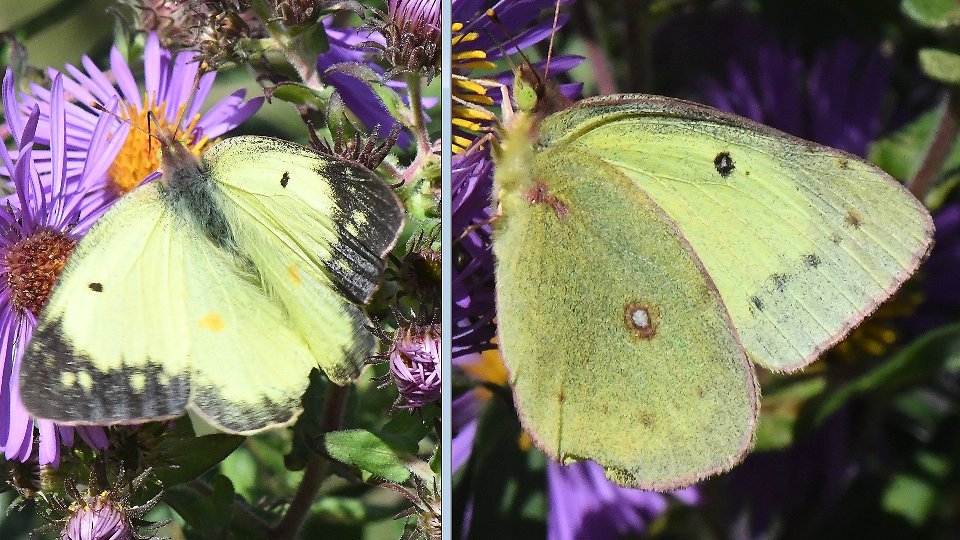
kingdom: Animalia
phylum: Arthropoda
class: Insecta
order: Lepidoptera
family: Pieridae
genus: Colias
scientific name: Colias philodice
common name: Clouded Sulphur
